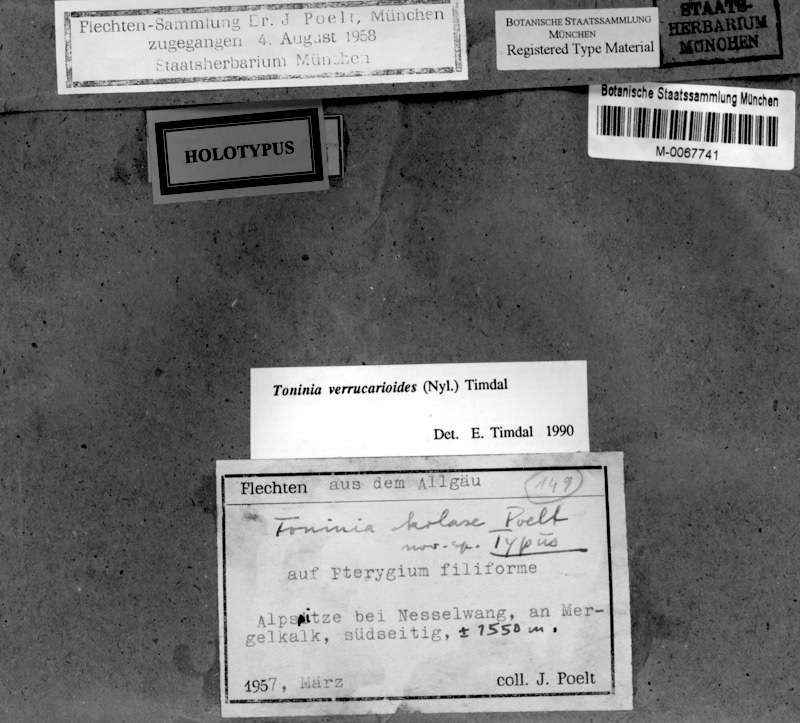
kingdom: Fungi
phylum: Ascomycota
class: Lecanoromycetes
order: Lecanorales
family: Ramalinaceae
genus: Toniniopsis
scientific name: Toniniopsis verrucarioides
